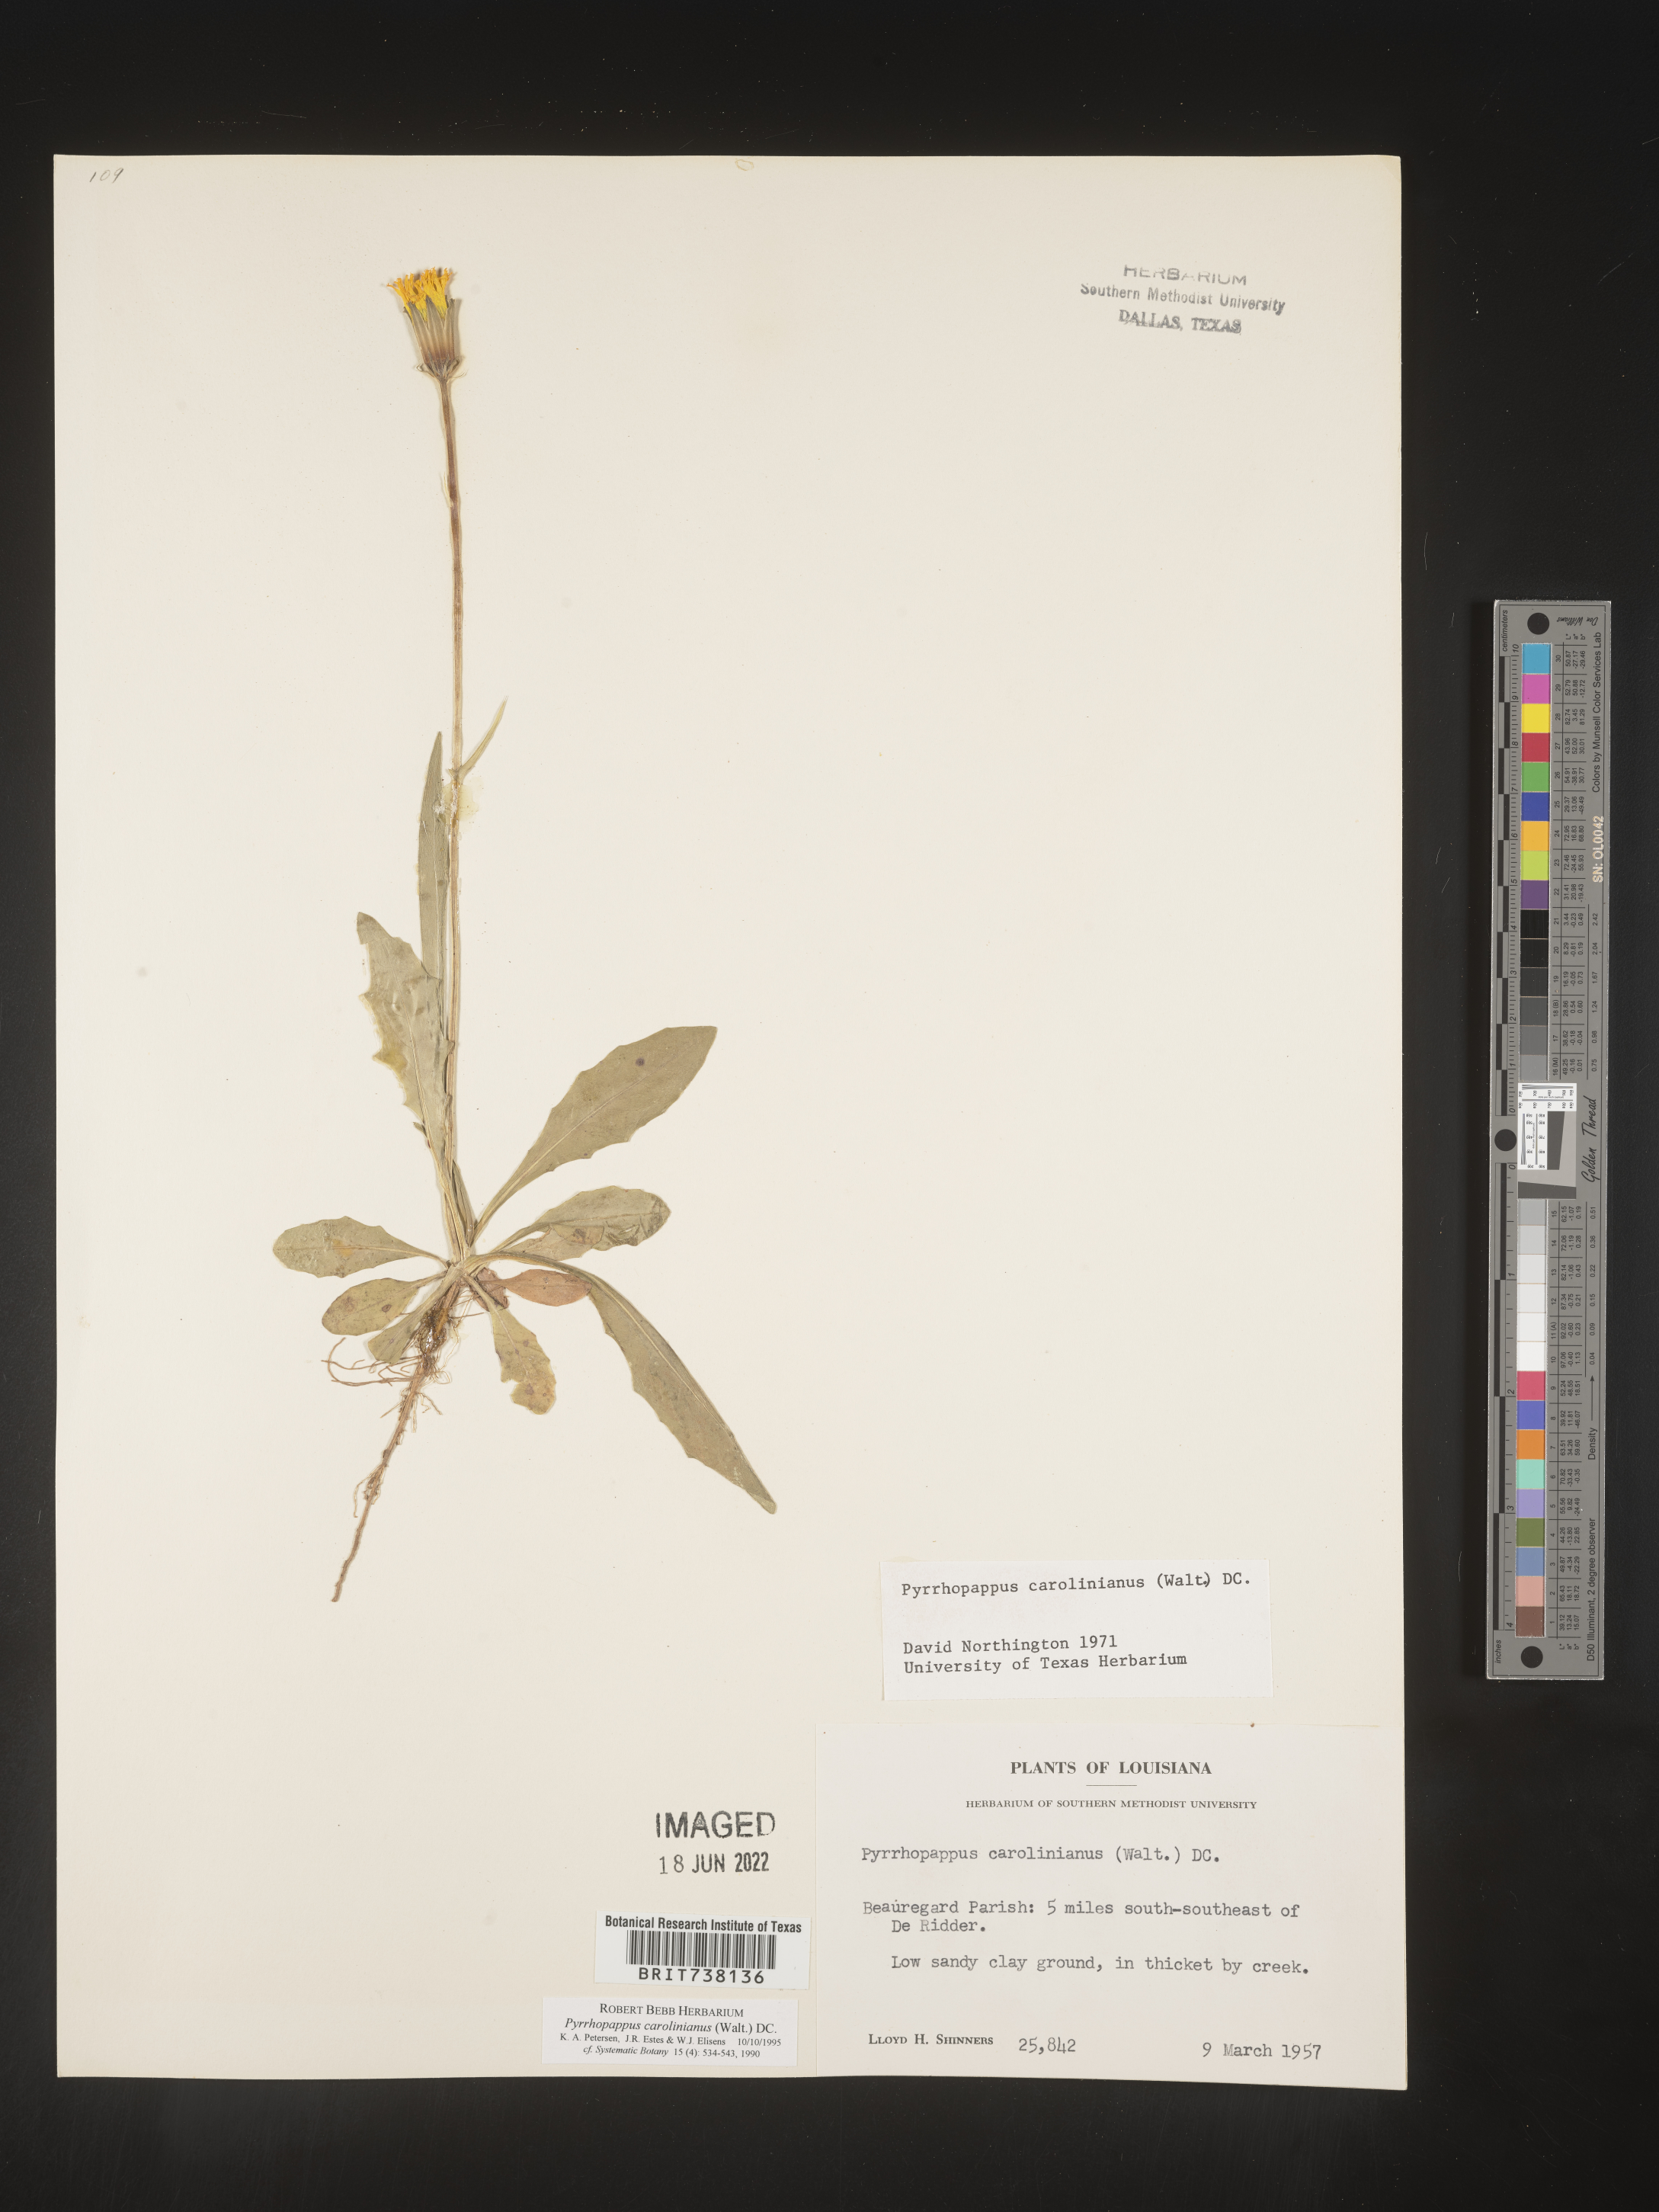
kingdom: Plantae
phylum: Tracheophyta
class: Magnoliopsida
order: Asterales
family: Asteraceae
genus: Pyrrhopappus
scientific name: Pyrrhopappus carolinianus
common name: Carolina desert-chicory
